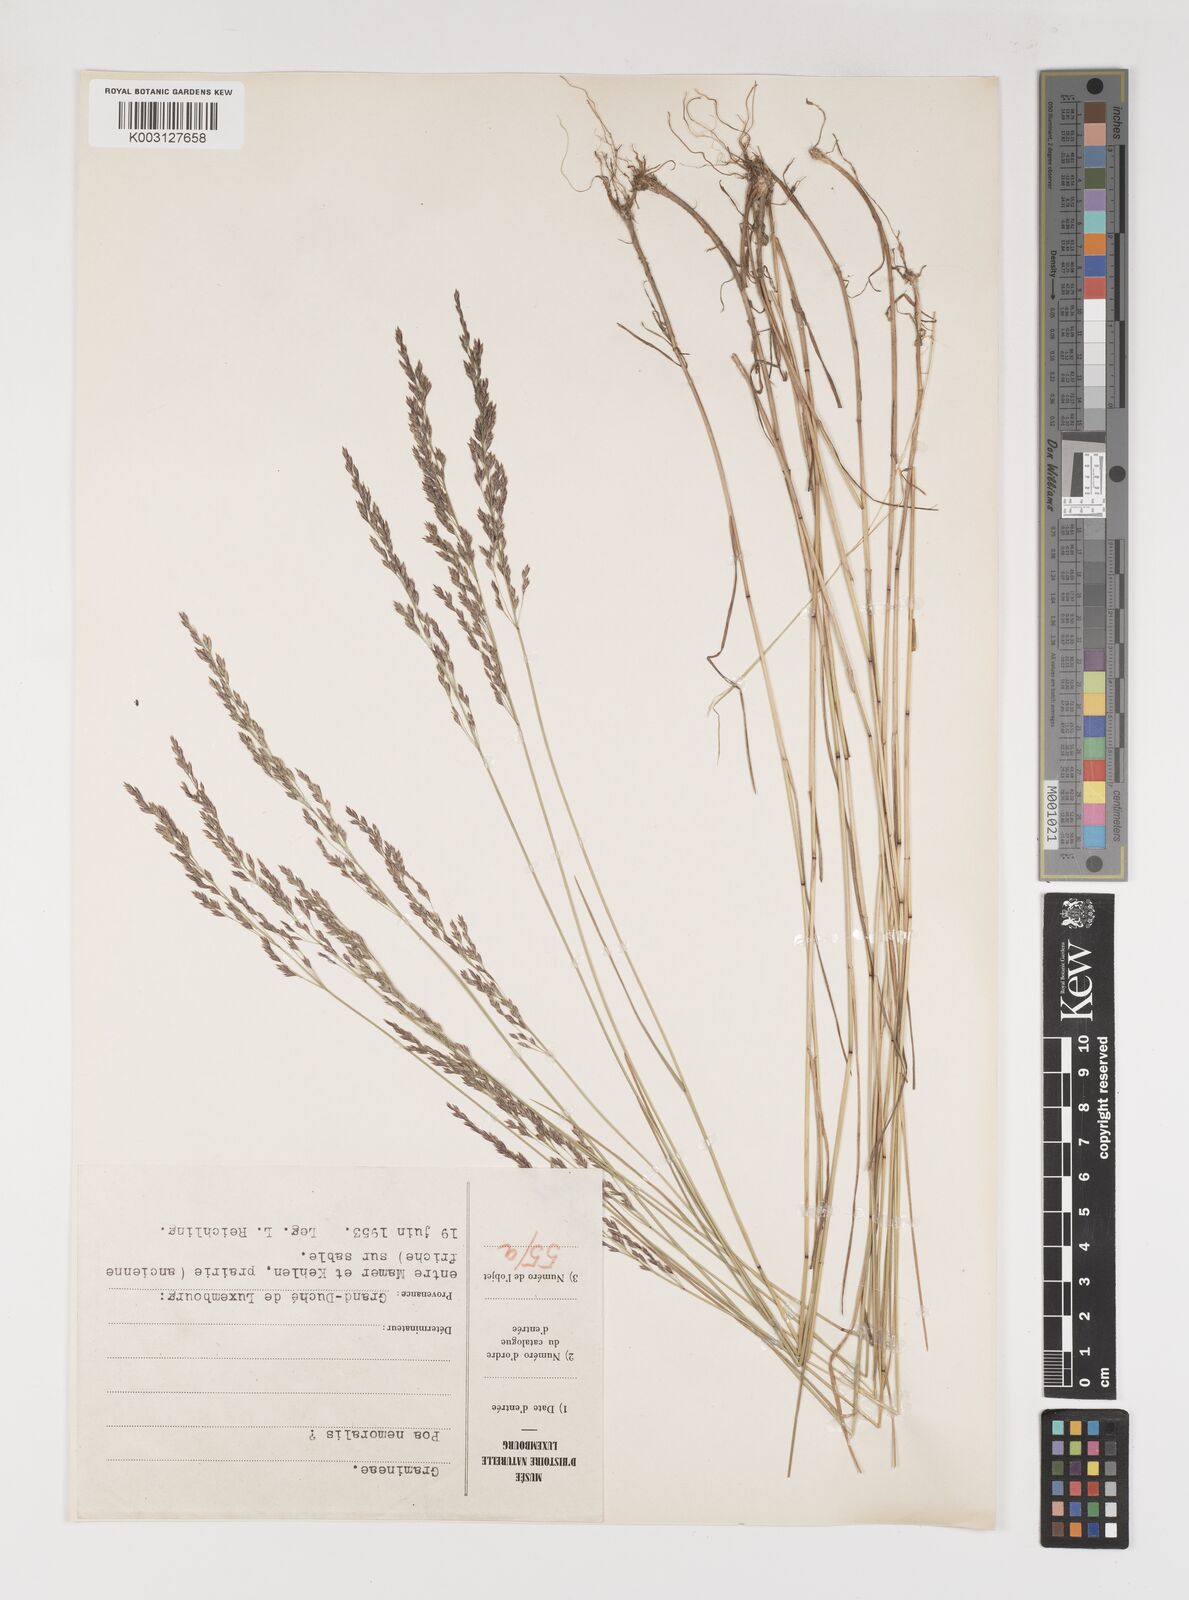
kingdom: Plantae
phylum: Tracheophyta
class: Liliopsida
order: Poales
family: Poaceae
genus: Poa
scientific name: Poa
